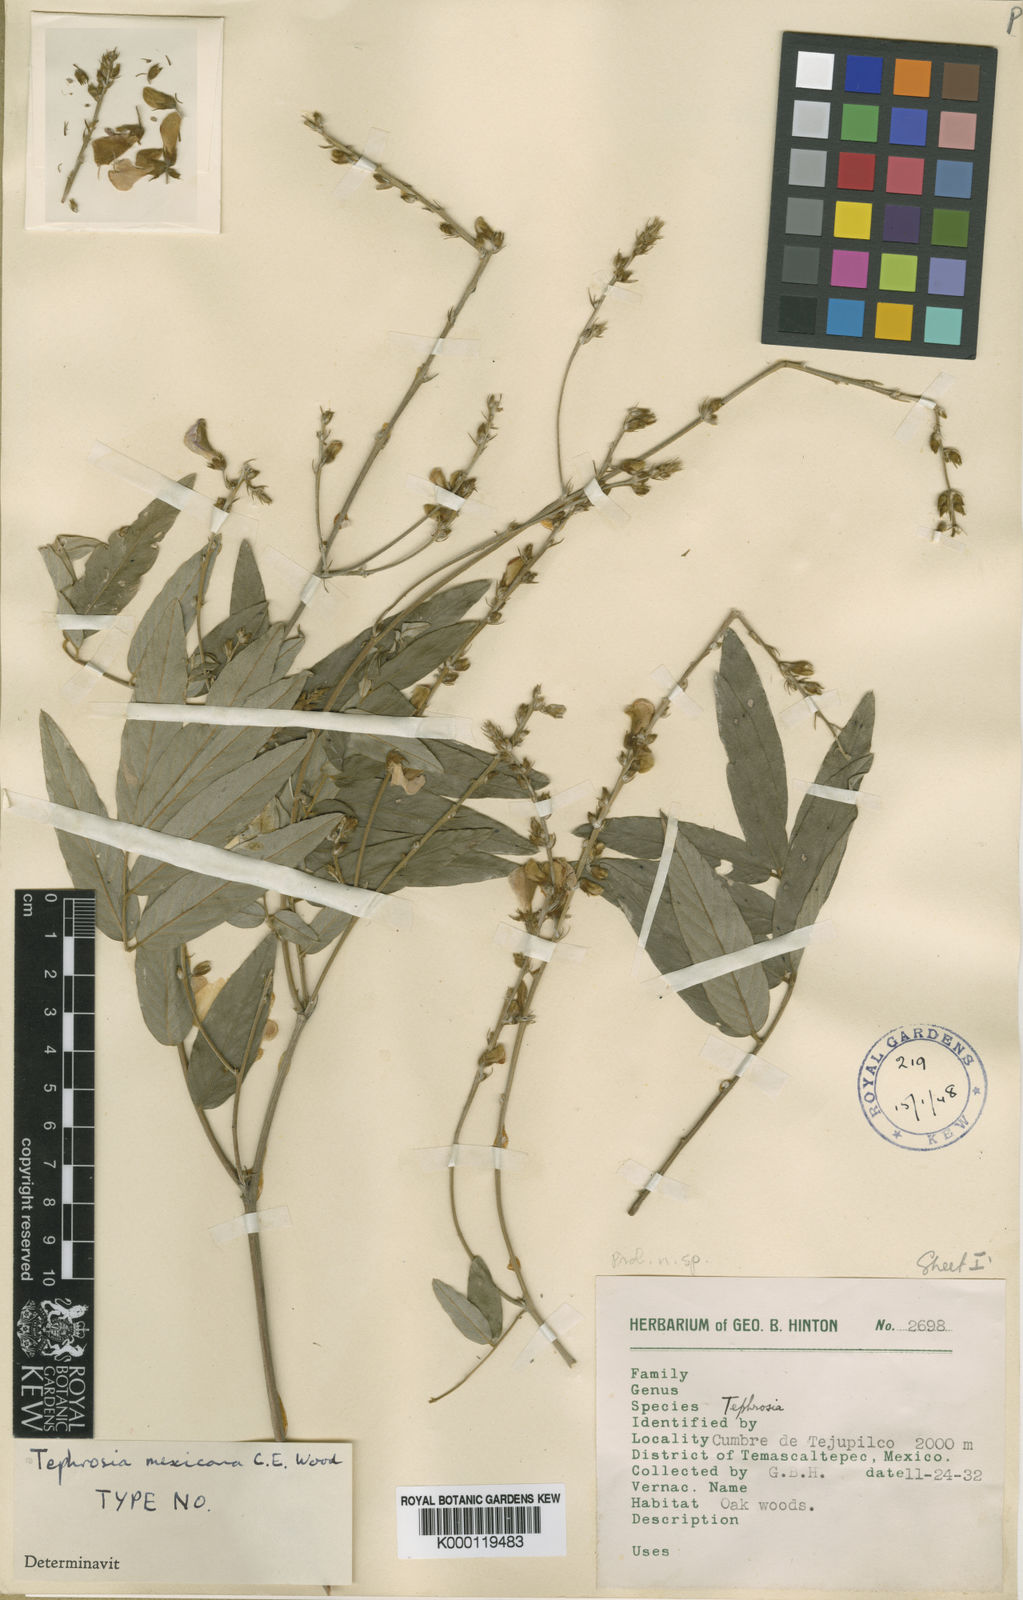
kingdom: Plantae
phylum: Tracheophyta
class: Magnoliopsida
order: Fabales
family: Fabaceae
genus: Tephrosia
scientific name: Tephrosia mexicana
